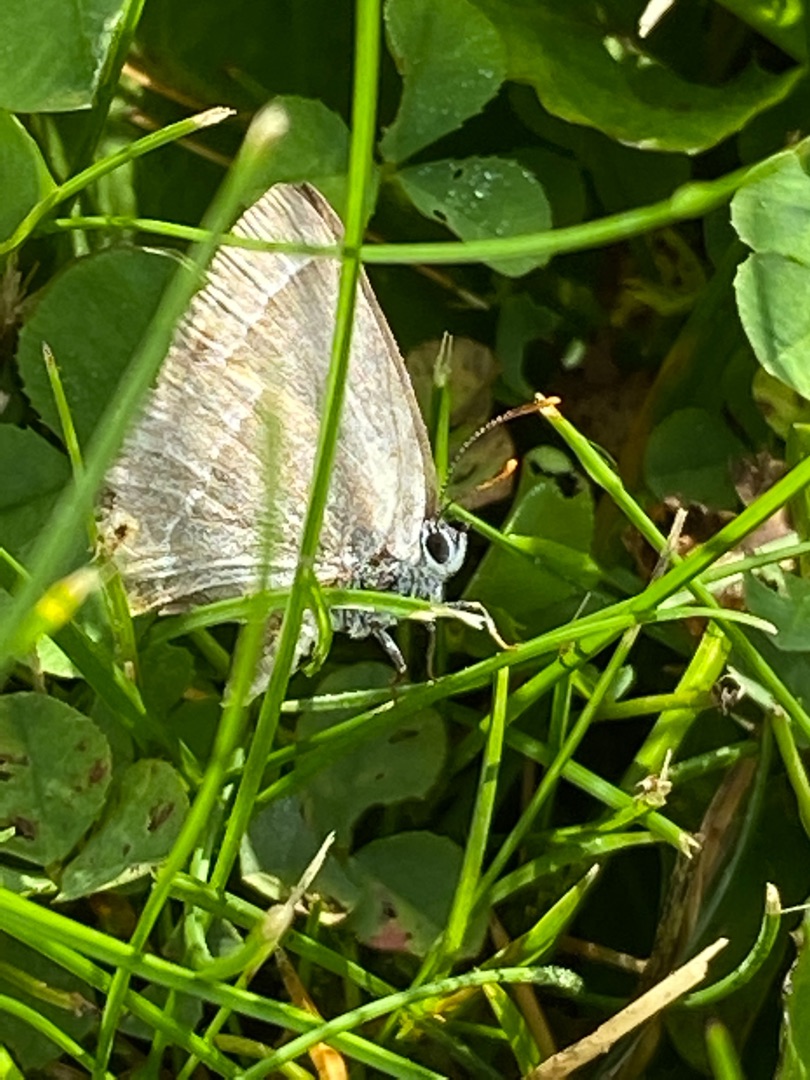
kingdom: Animalia
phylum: Arthropoda
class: Insecta
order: Lepidoptera
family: Lycaenidae
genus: Quercusia
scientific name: Quercusia quercus
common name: Blåhale
